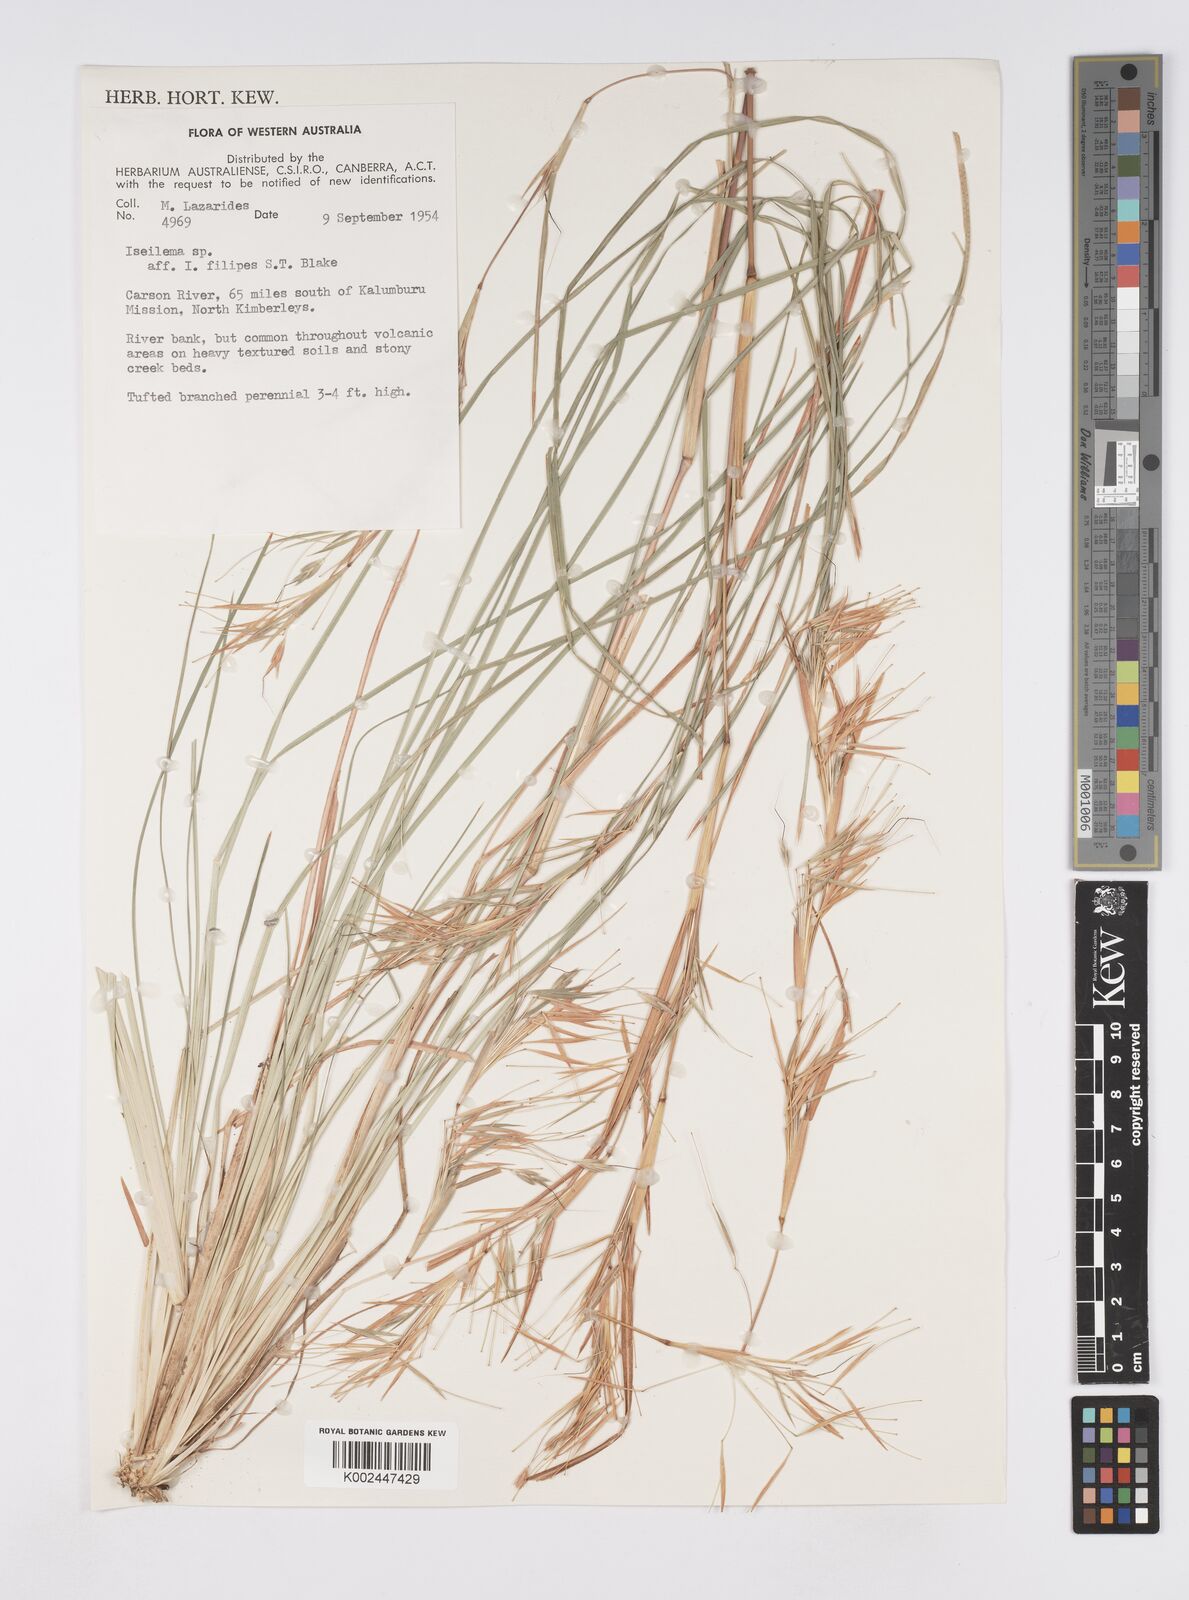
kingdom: Plantae
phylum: Tracheophyta
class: Liliopsida
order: Poales
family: Poaceae
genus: Iseilema
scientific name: Iseilema
